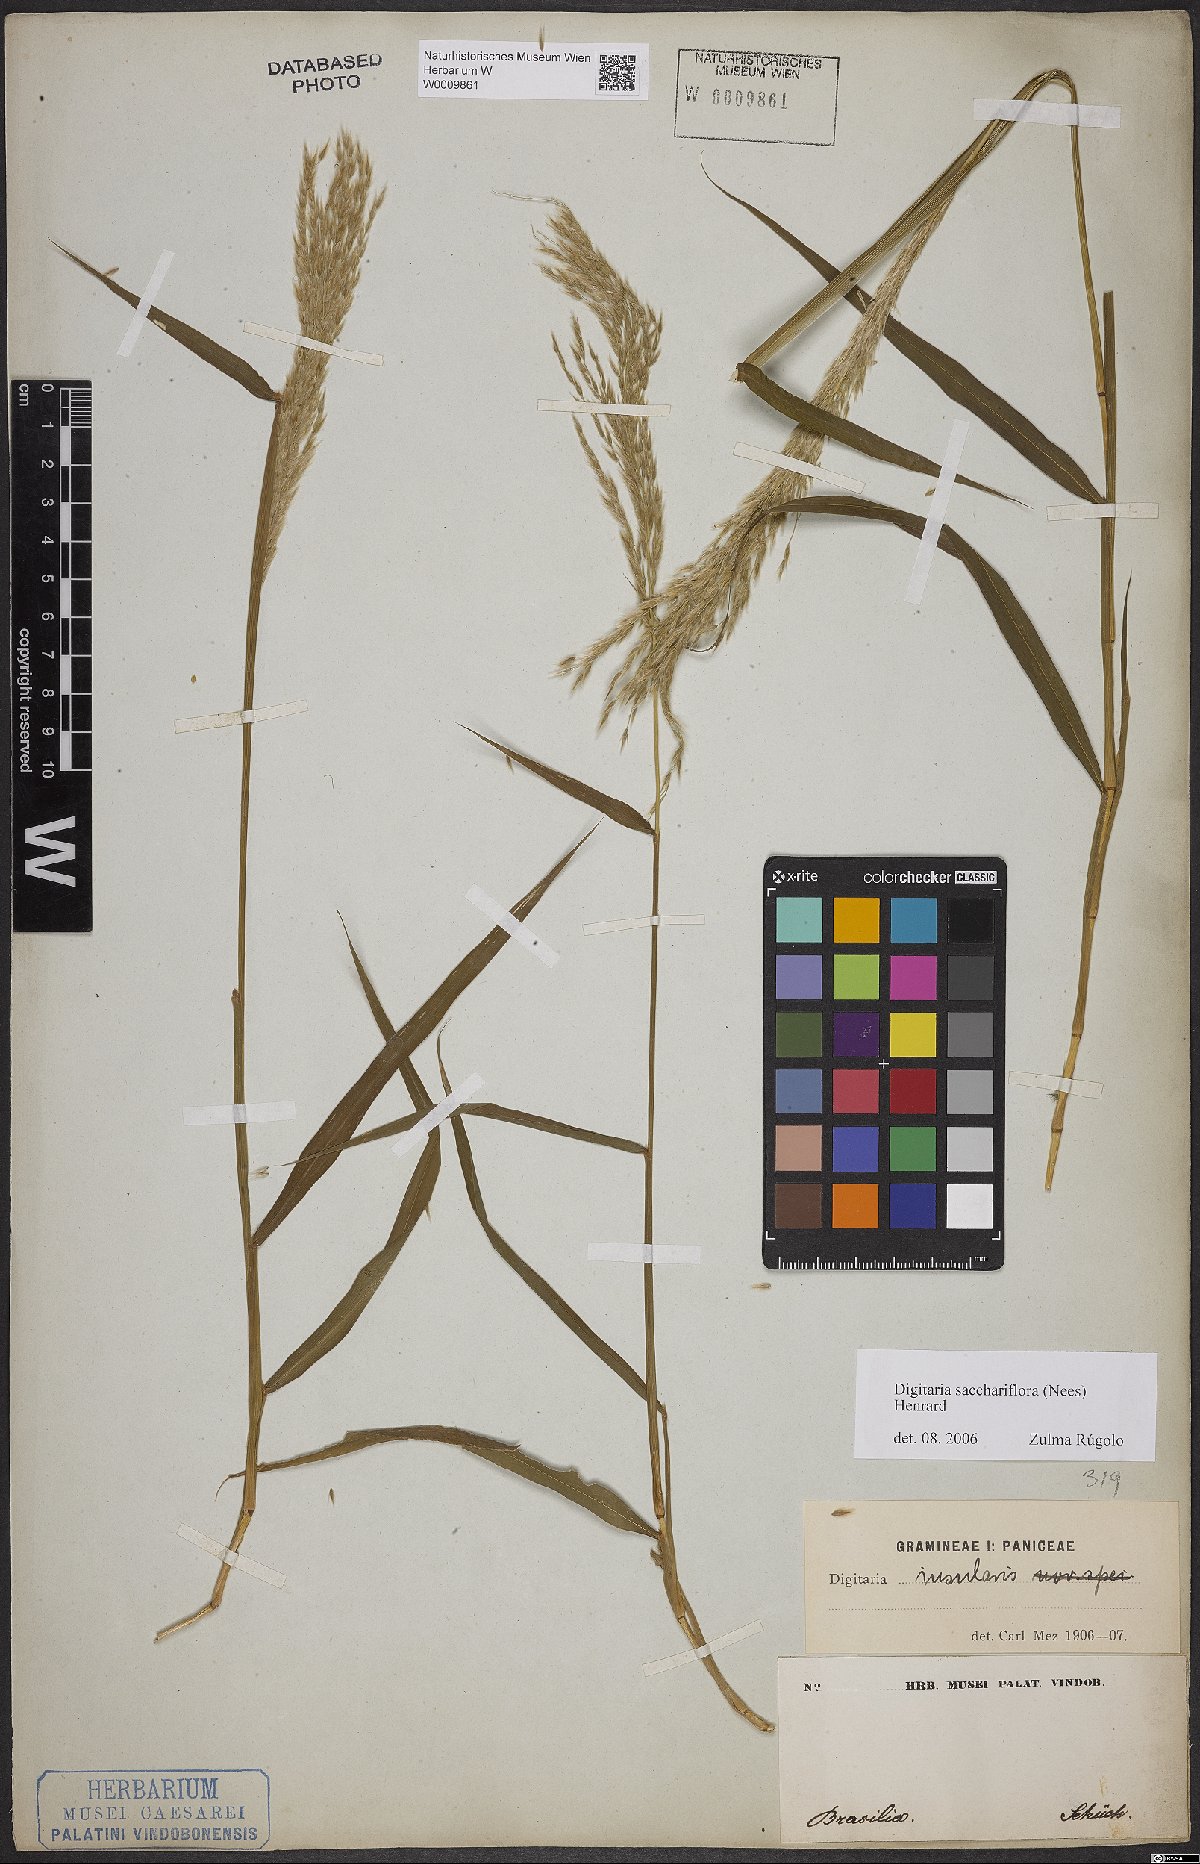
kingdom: Plantae
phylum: Tracheophyta
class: Liliopsida
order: Poales
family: Poaceae
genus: Digitaria
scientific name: Digitaria sacchariflora
